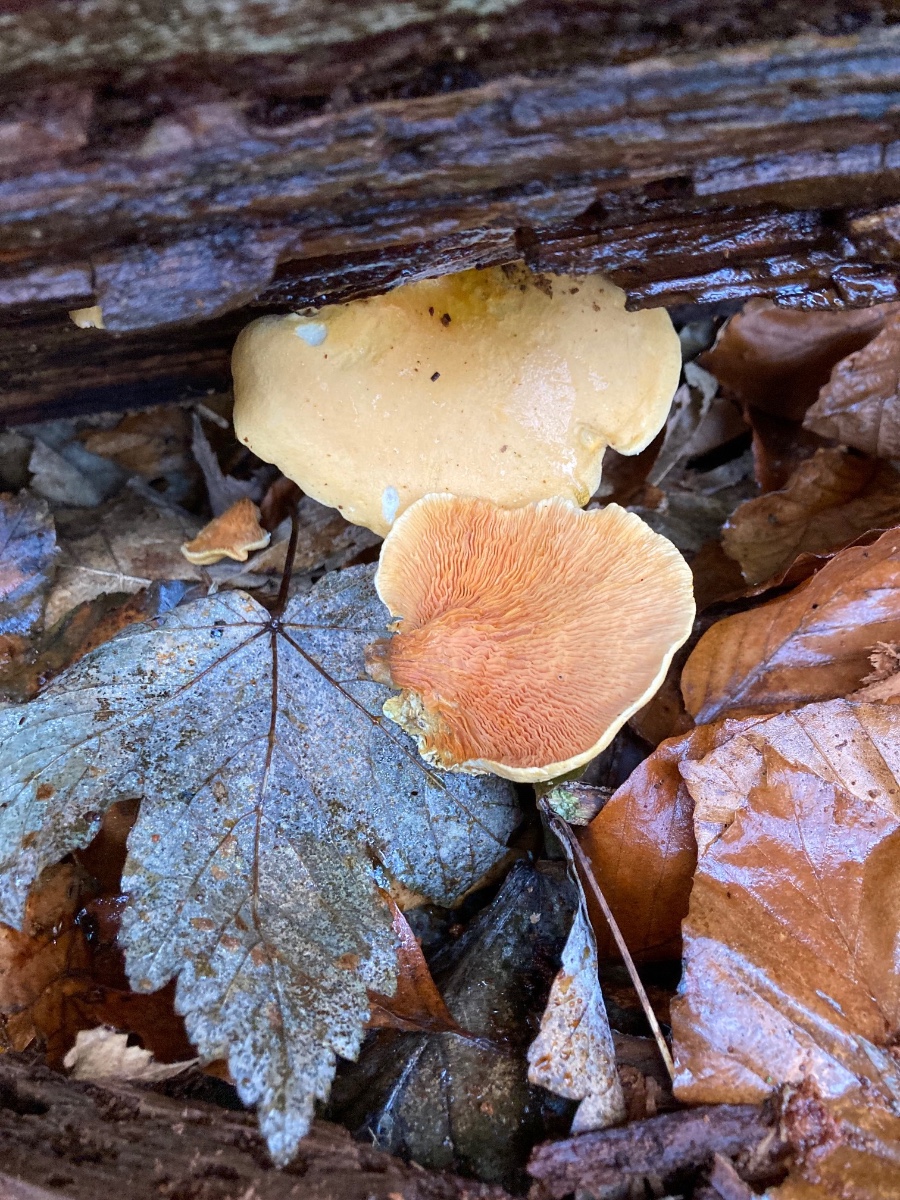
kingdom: Fungi
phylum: Basidiomycota
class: Agaricomycetes
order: Boletales
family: Hygrophoropsidaceae
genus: Hygrophoropsis
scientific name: Hygrophoropsis aurantiaca
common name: almindelig orangekantarel
